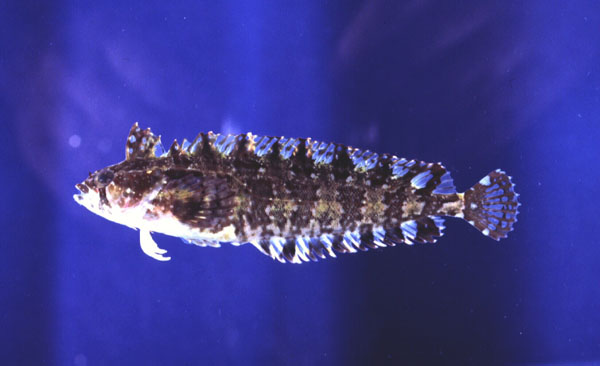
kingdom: Animalia
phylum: Chordata
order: Perciformes
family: Clinidae
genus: Pavoclinus
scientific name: Pavoclinus laurentii
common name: Rippled klipfish
